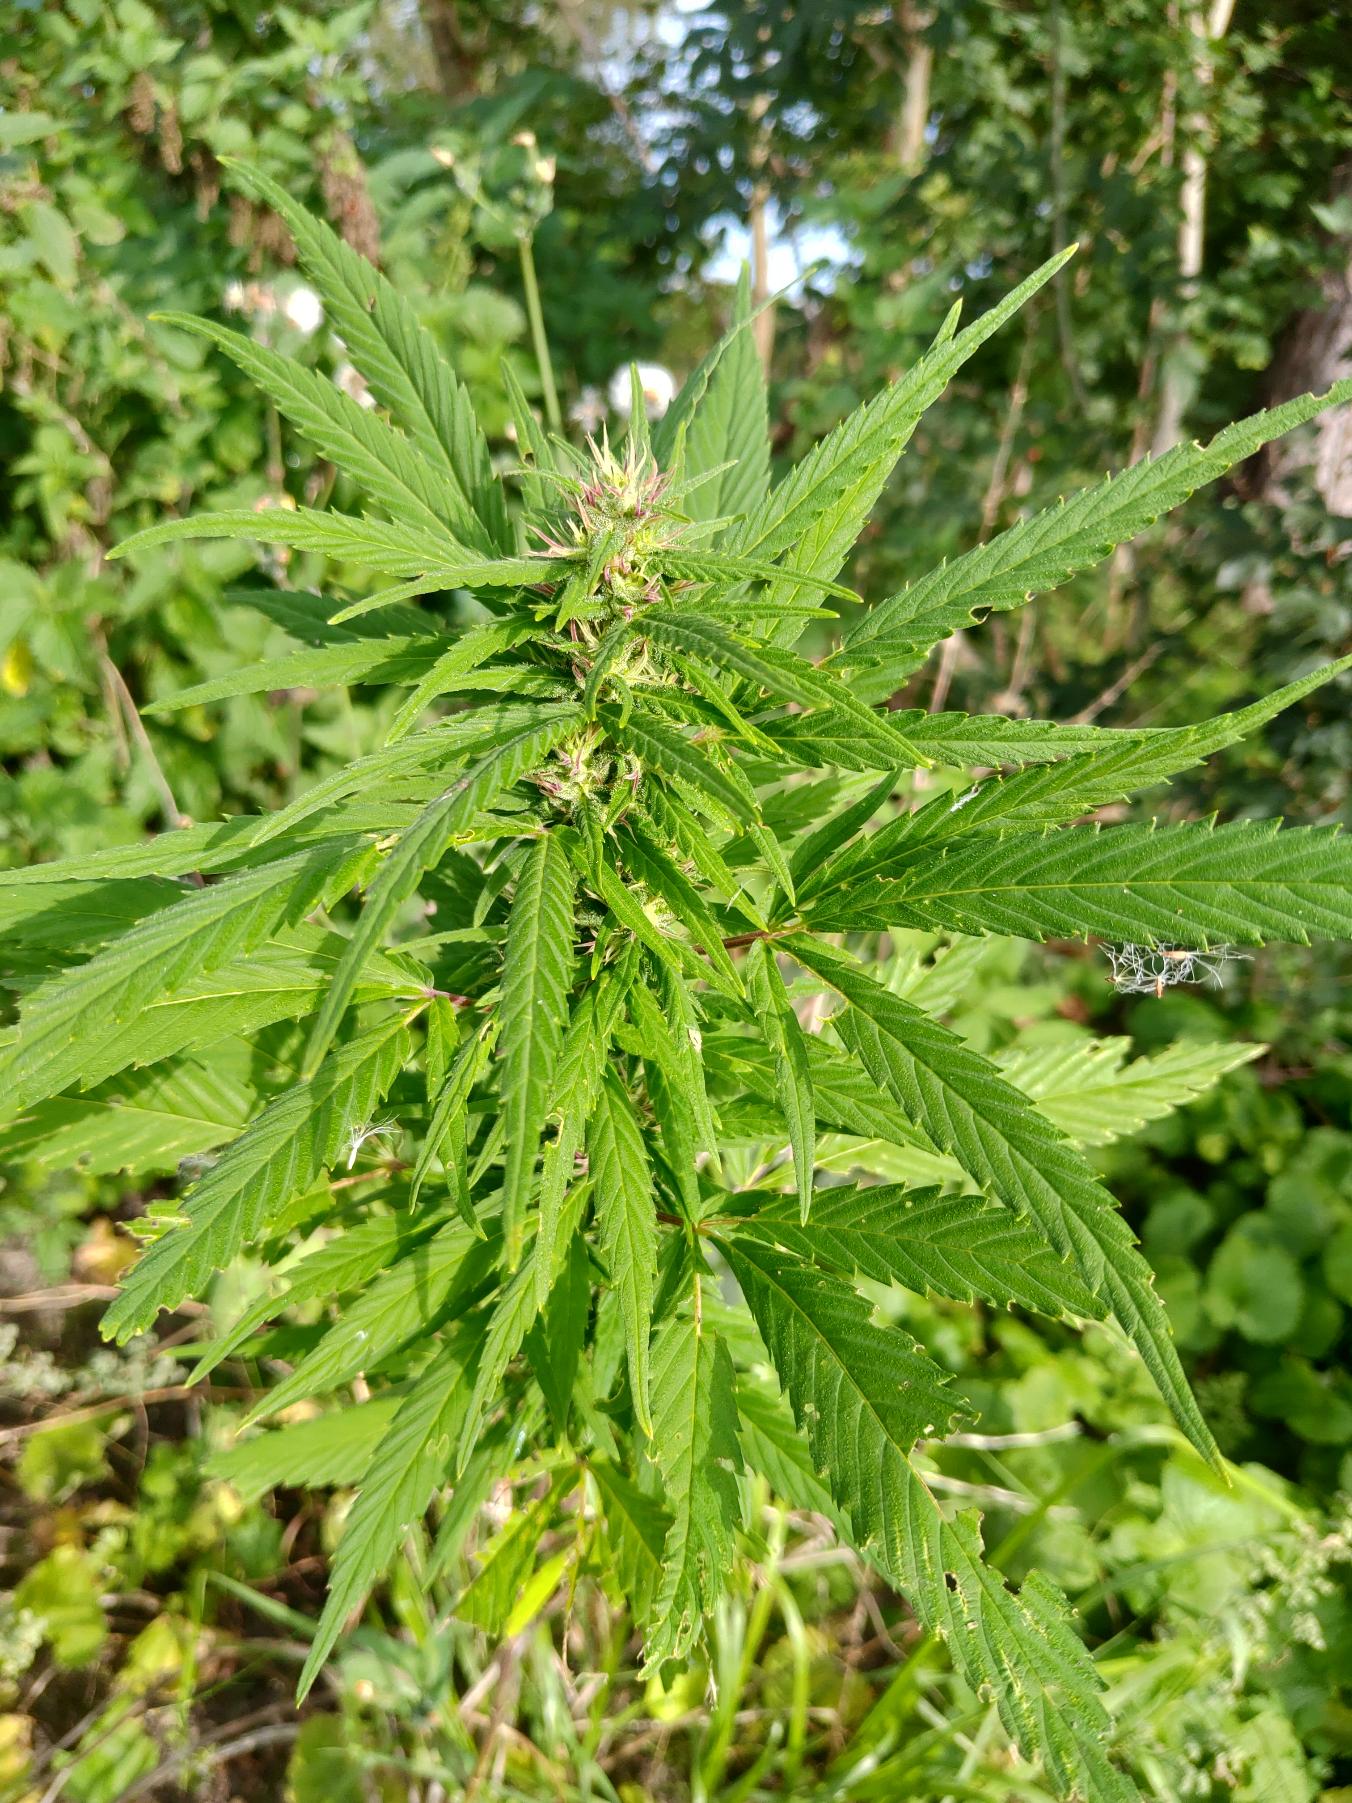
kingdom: Plantae
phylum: Tracheophyta
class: Magnoliopsida
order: Rosales
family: Cannabaceae
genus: Cannabis
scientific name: Cannabis sativa
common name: Hamp
